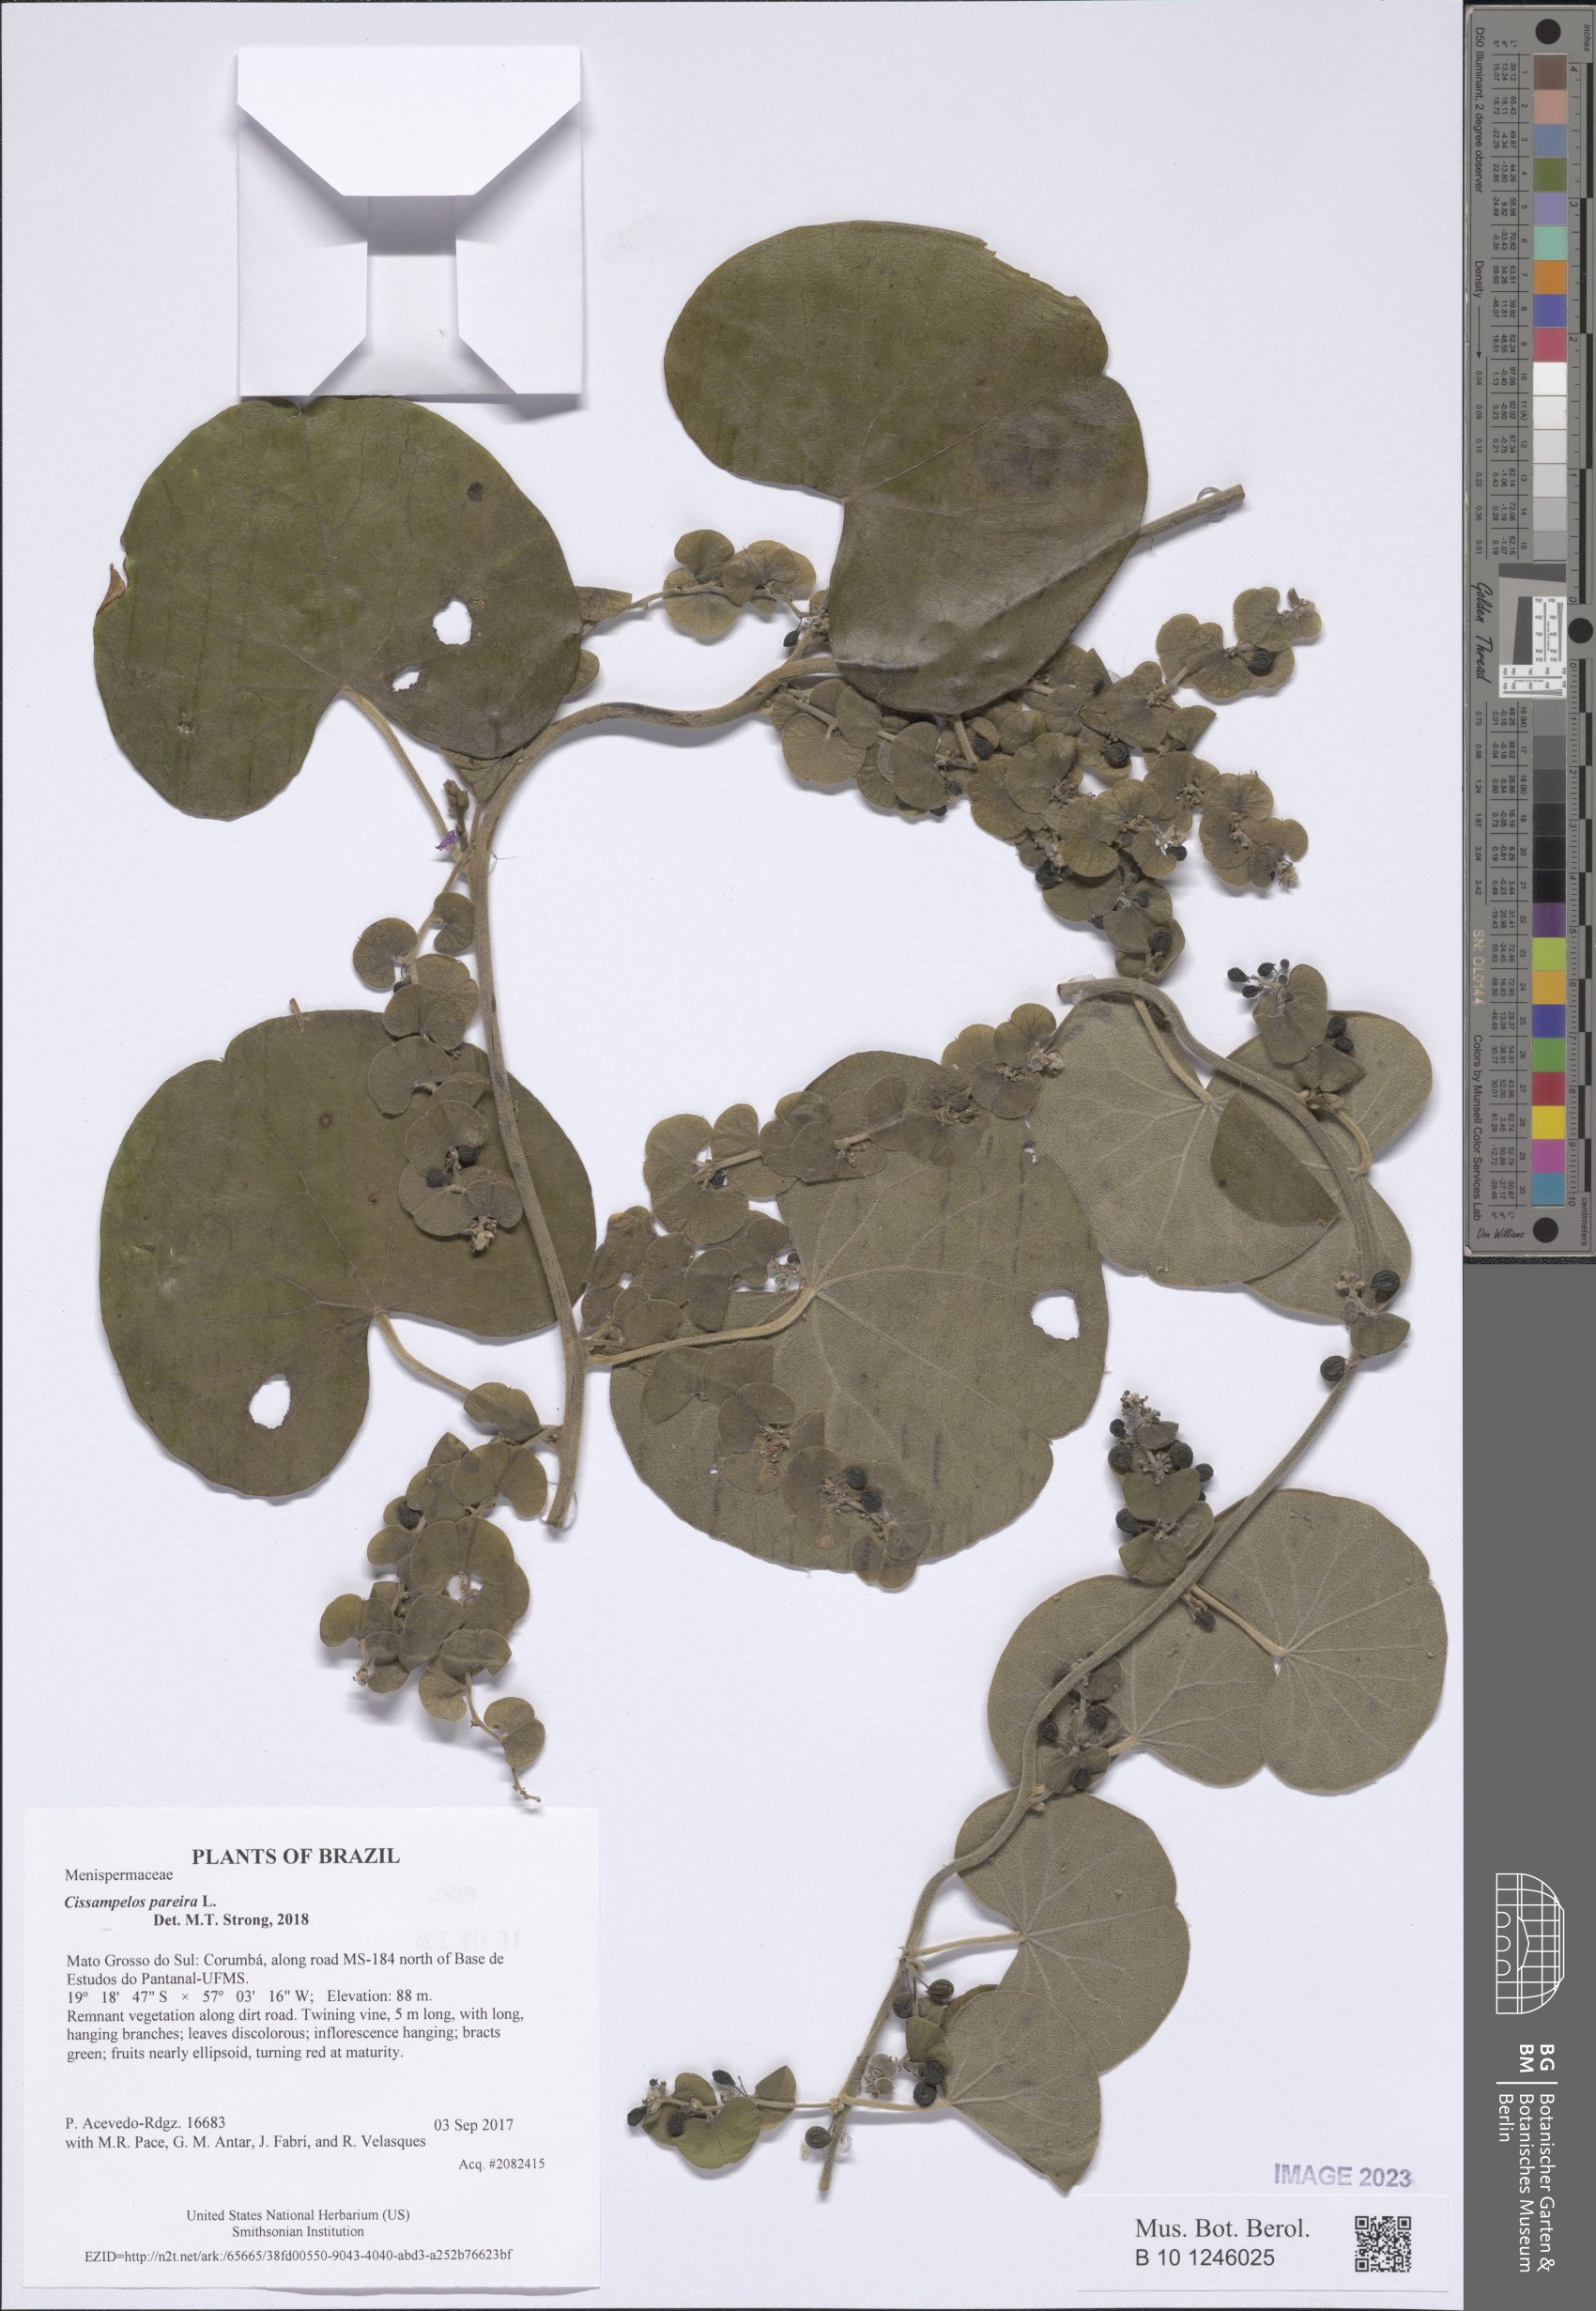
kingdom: Plantae
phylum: Tracheophyta
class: Magnoliopsida
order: Ranunculales
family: Menispermaceae
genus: Cissampelos
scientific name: Cissampelos pareira
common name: Velvetleaf
